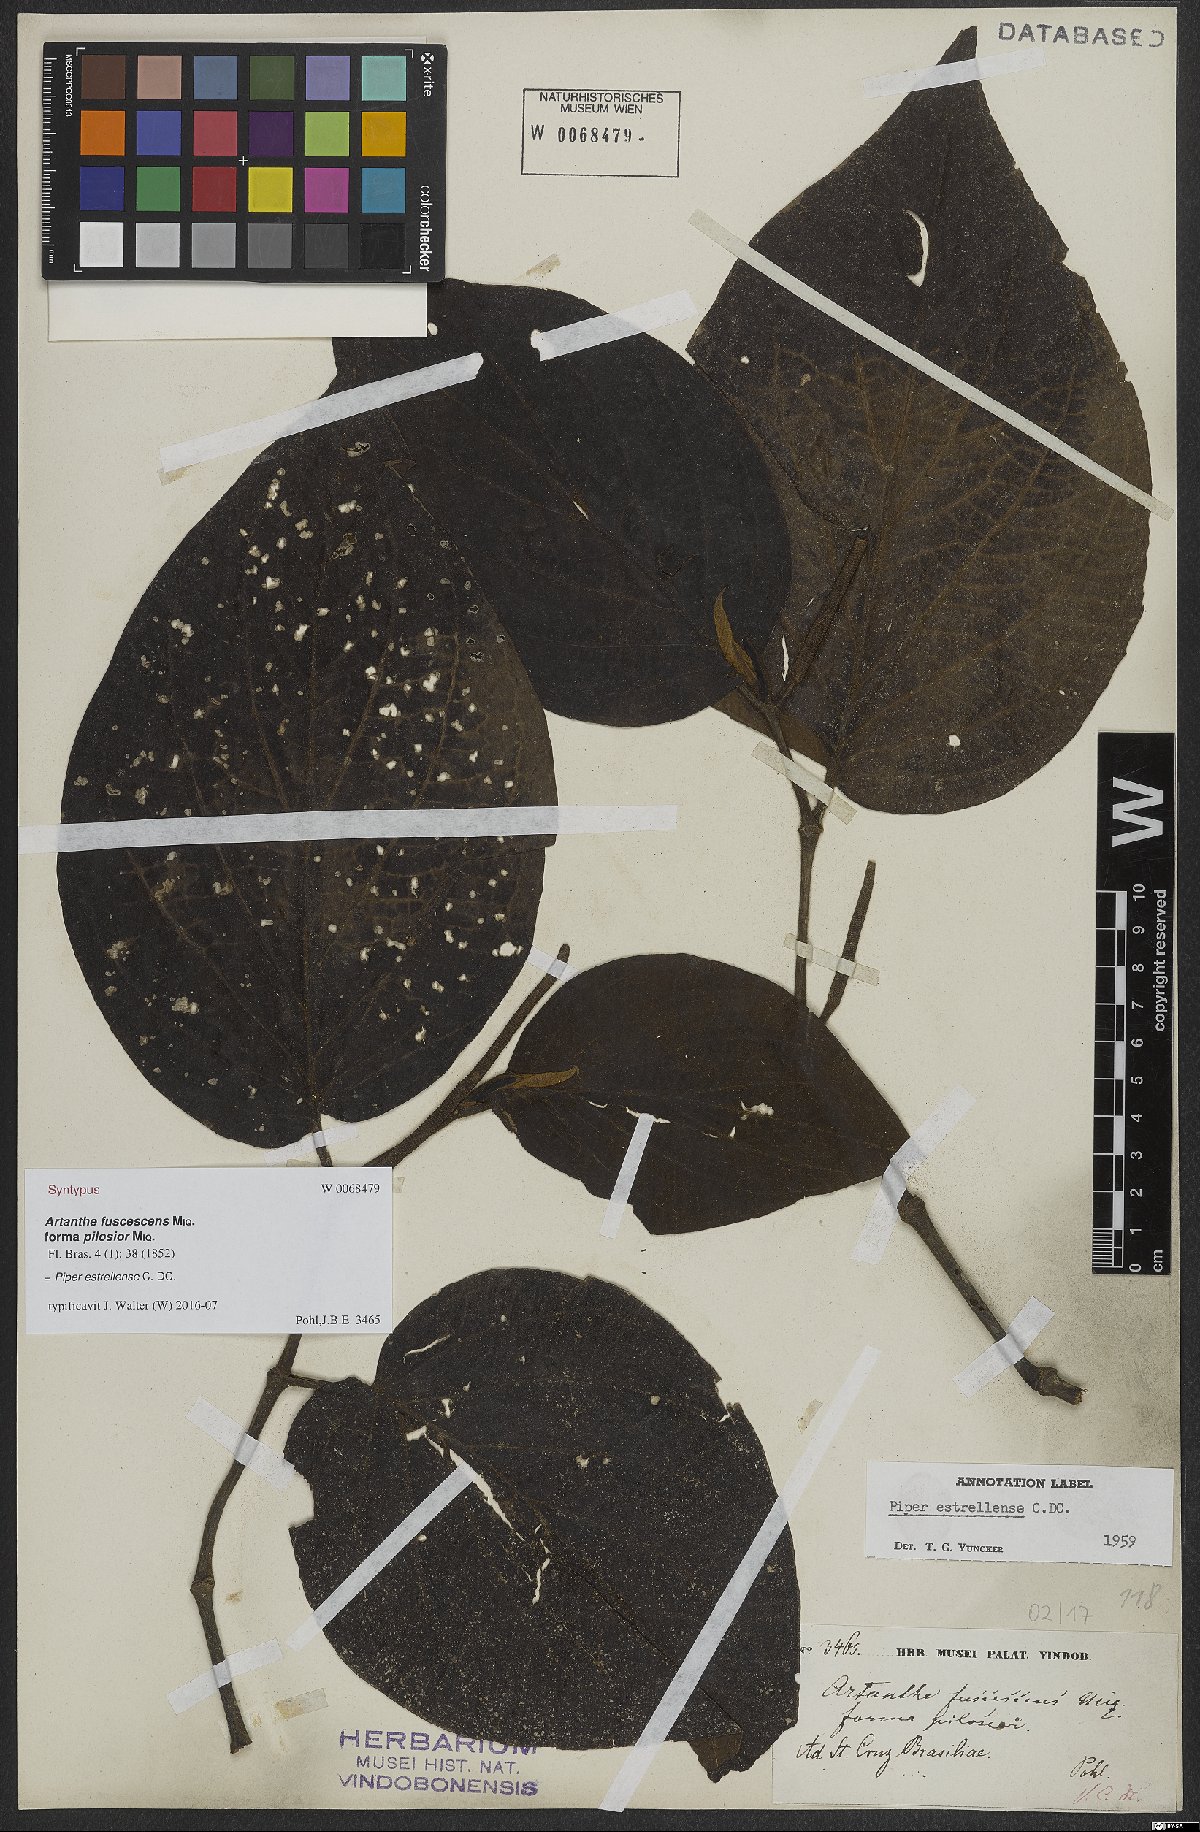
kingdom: Plantae
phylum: Tracheophyta
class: Magnoliopsida
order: Piperales
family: Piperaceae
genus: Piper
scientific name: Piper tectoniifolium
